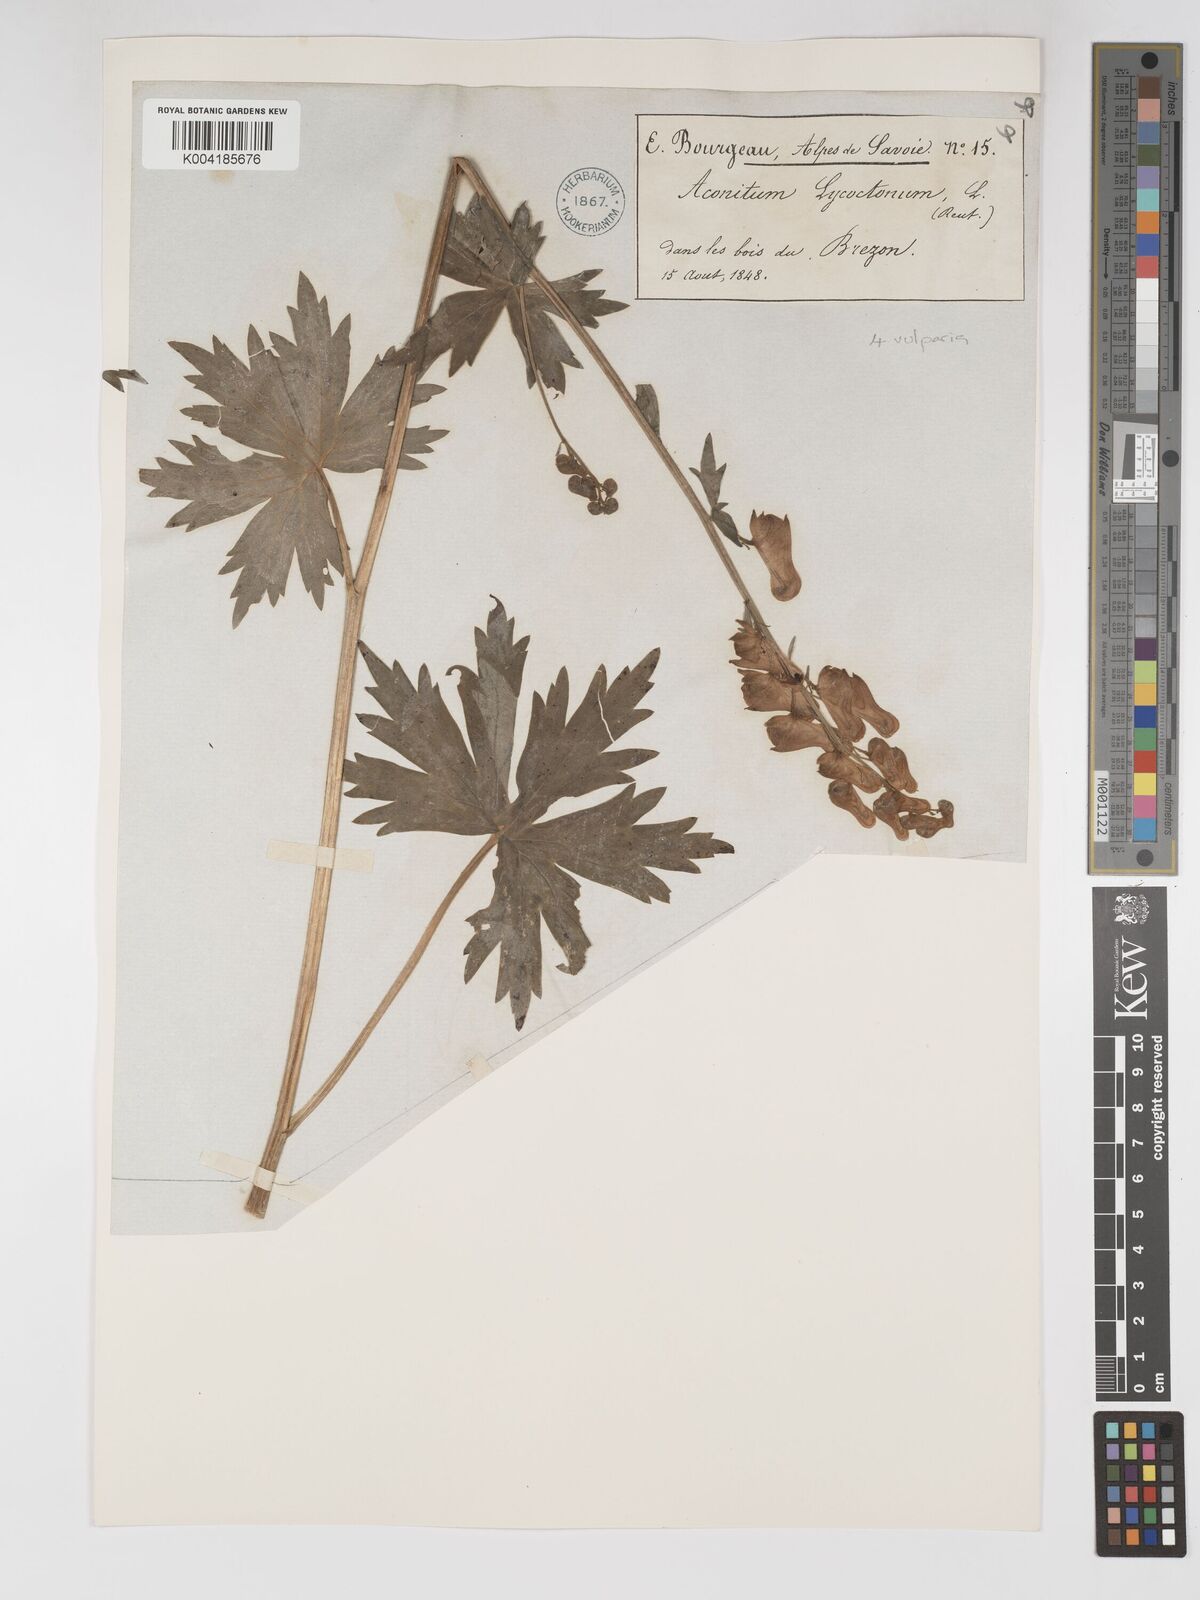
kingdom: Plantae
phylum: Tracheophyta
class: Magnoliopsida
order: Ranunculales
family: Ranunculaceae
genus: Aconitum
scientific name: Aconitum lycoctonum
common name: Wolf's-bane
